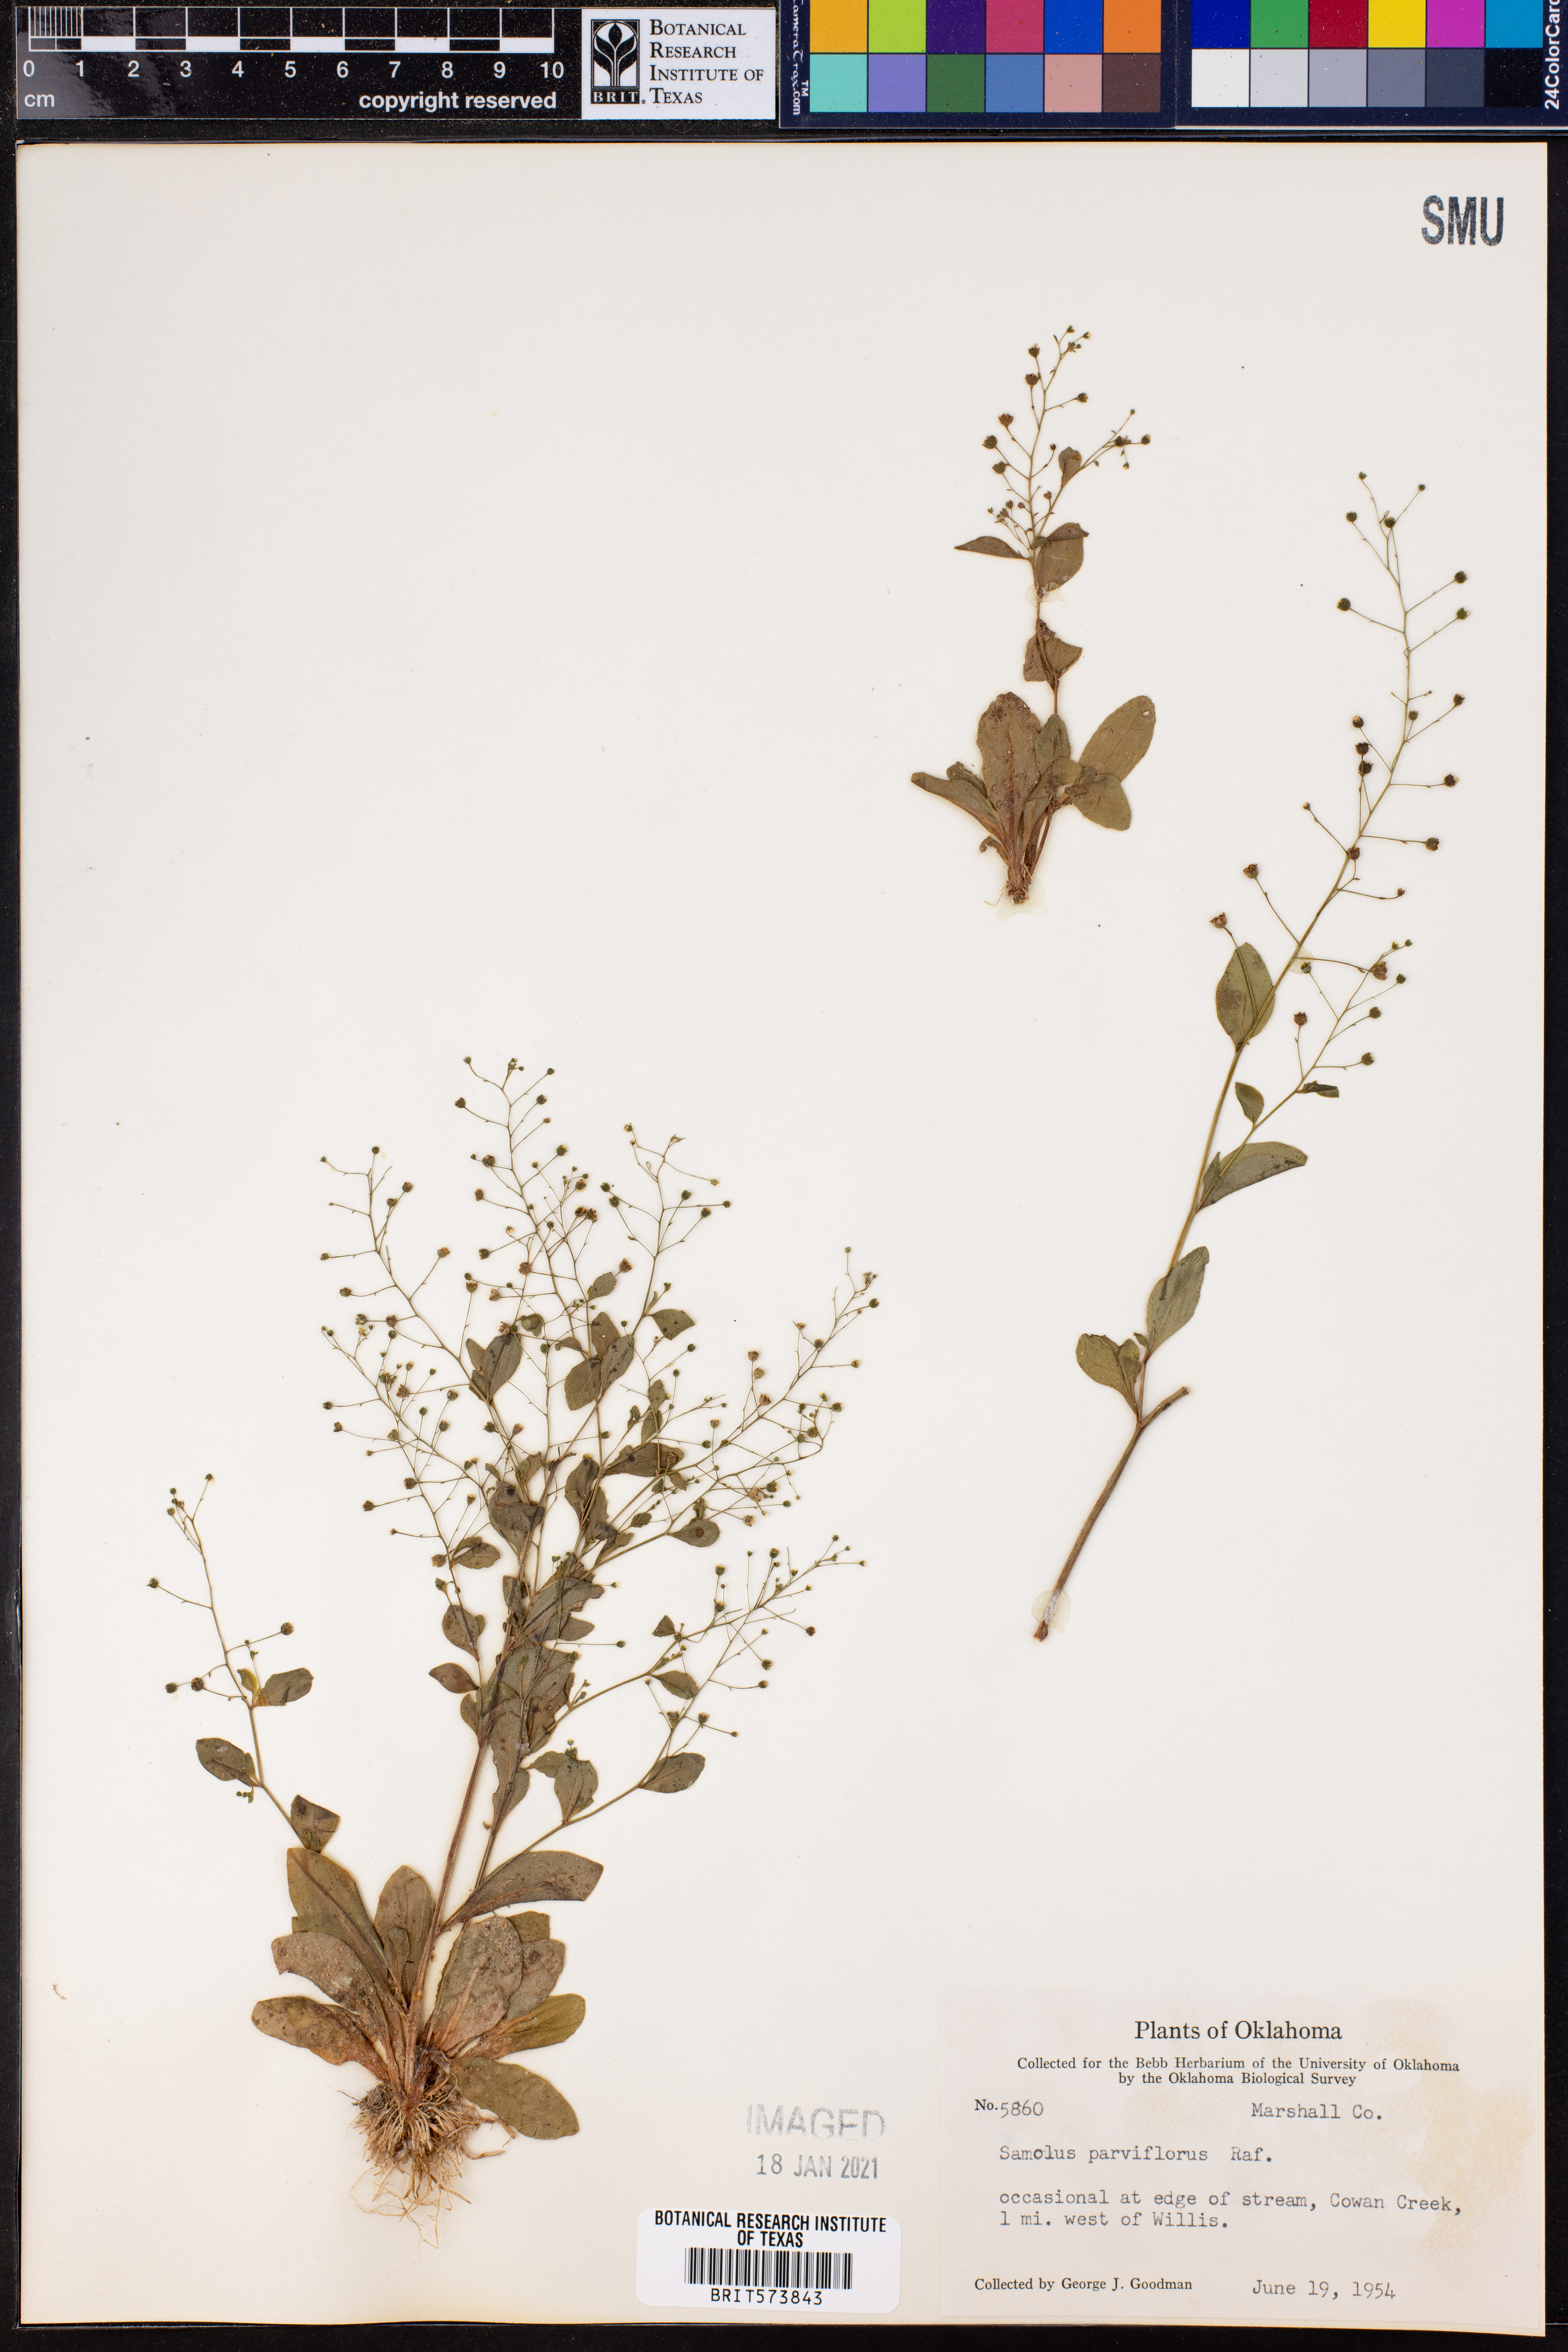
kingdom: Plantae
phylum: Tracheophyta
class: Magnoliopsida
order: Ericales
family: Primulaceae
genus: Samolus
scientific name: Samolus parviflorus
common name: False water pimpernel
